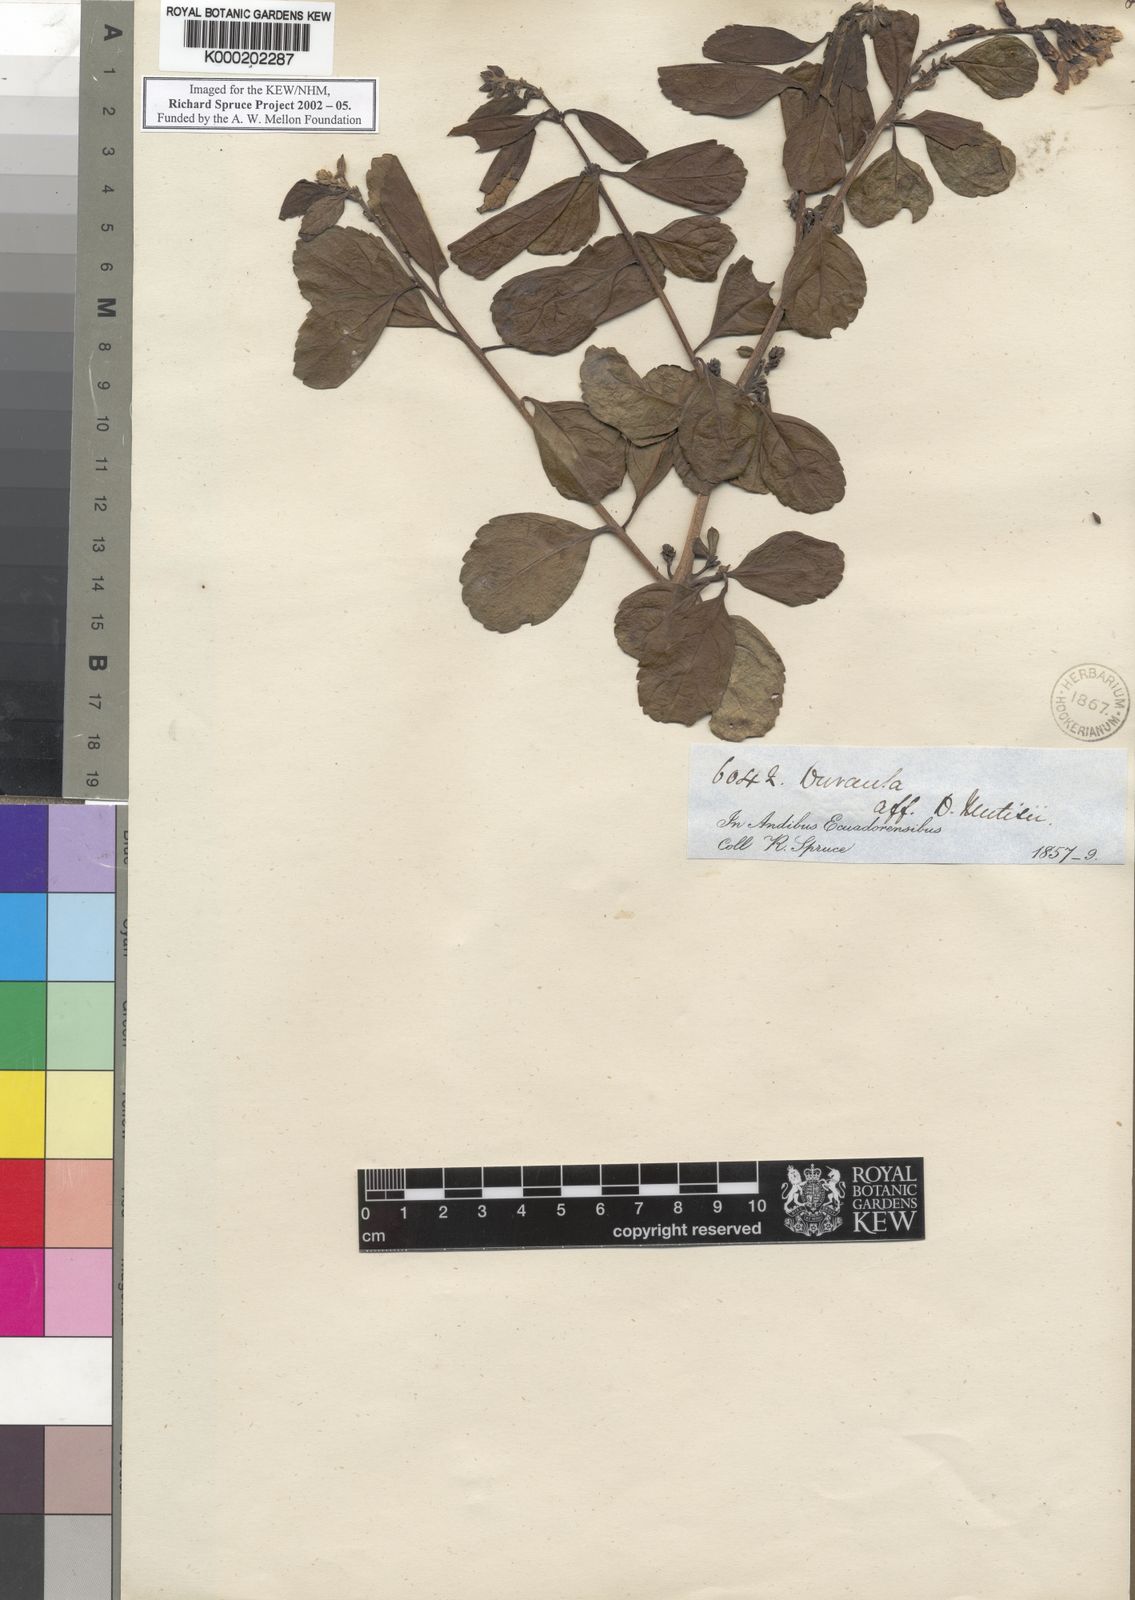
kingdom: Plantae
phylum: Tracheophyta
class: Magnoliopsida
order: Lamiales
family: Verbenaceae
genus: Duranta
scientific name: Duranta mutisii
